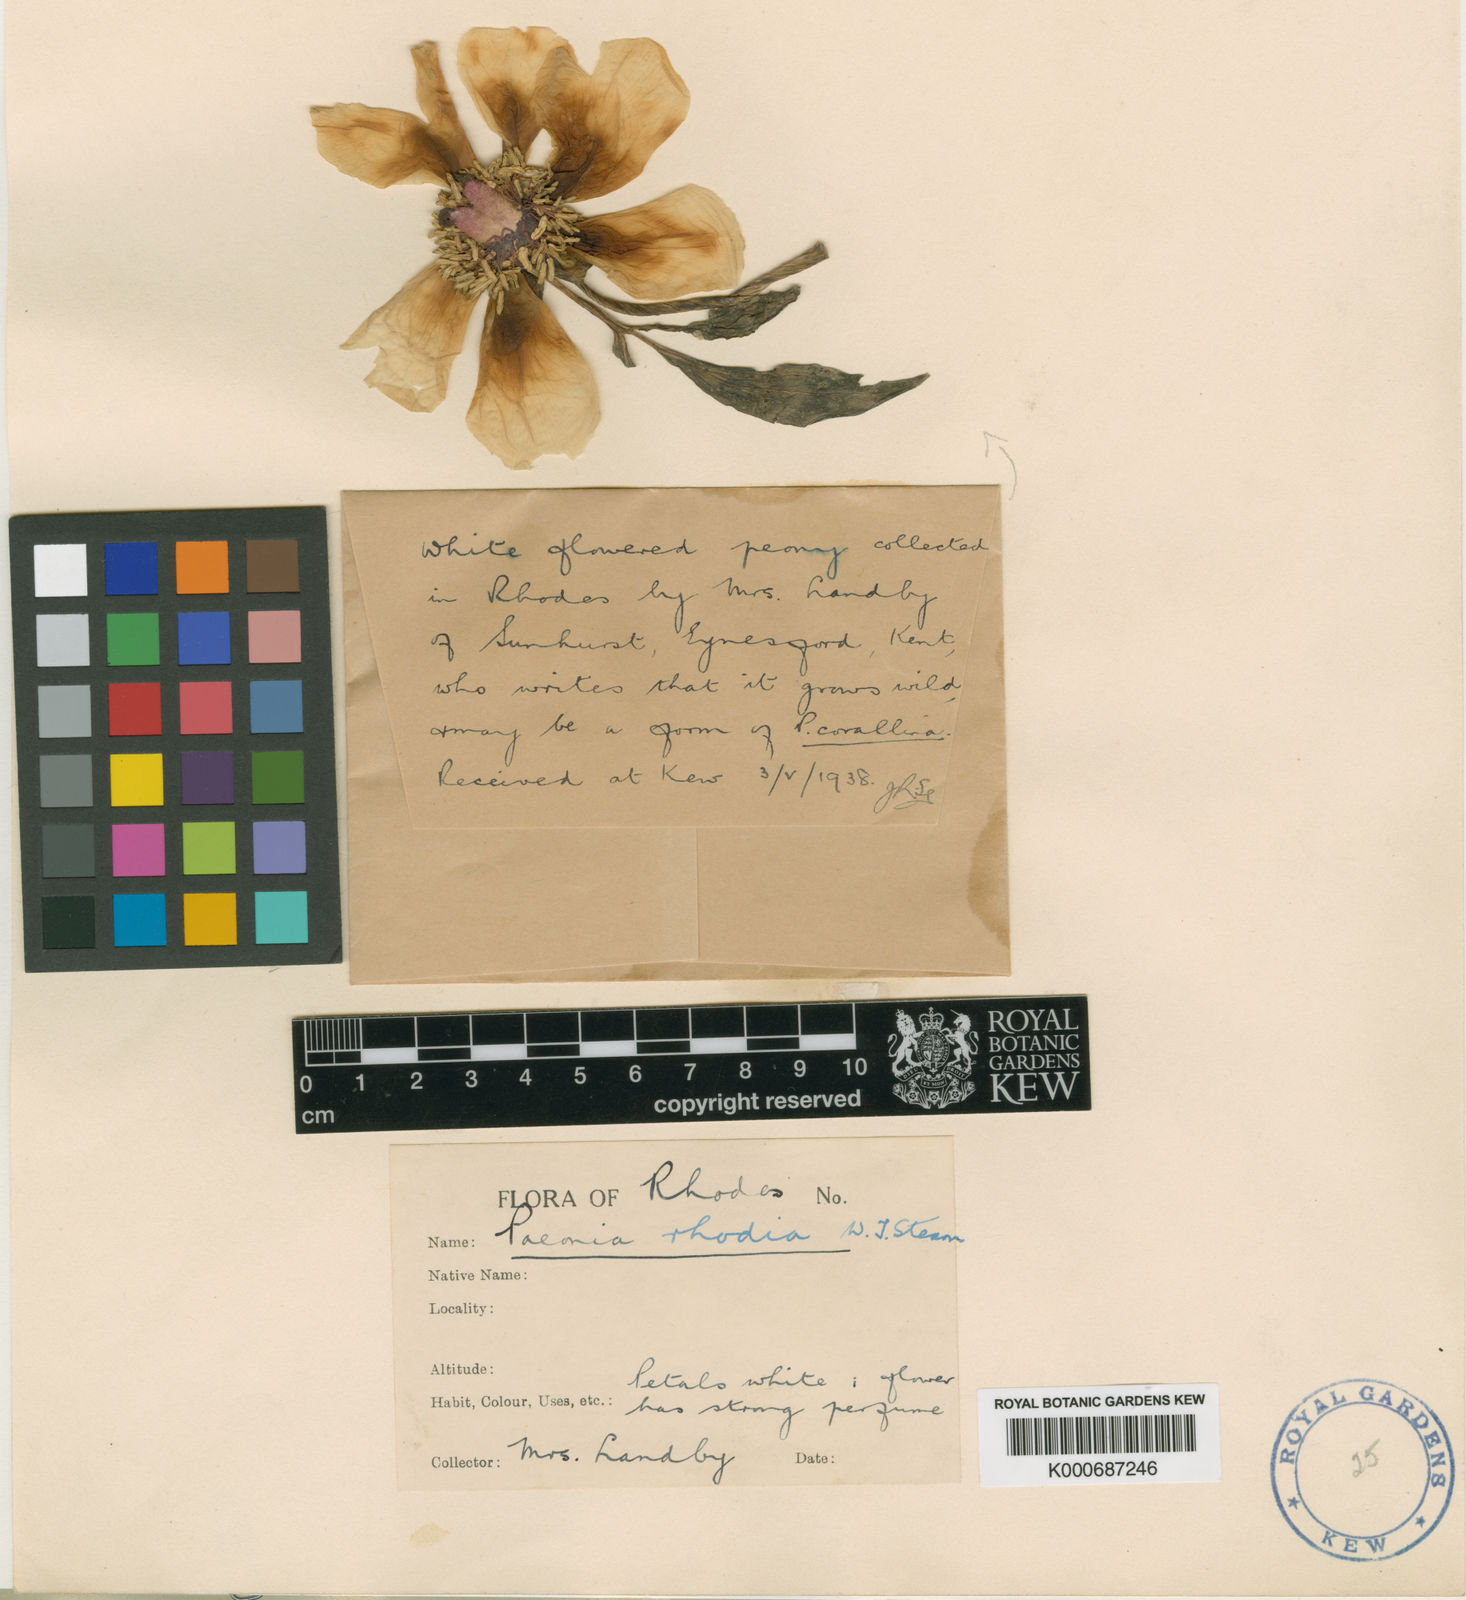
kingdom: Plantae
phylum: Tracheophyta
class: Magnoliopsida
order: Saxifragales
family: Paeoniaceae
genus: Paeonia
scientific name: Paeonia clusii
